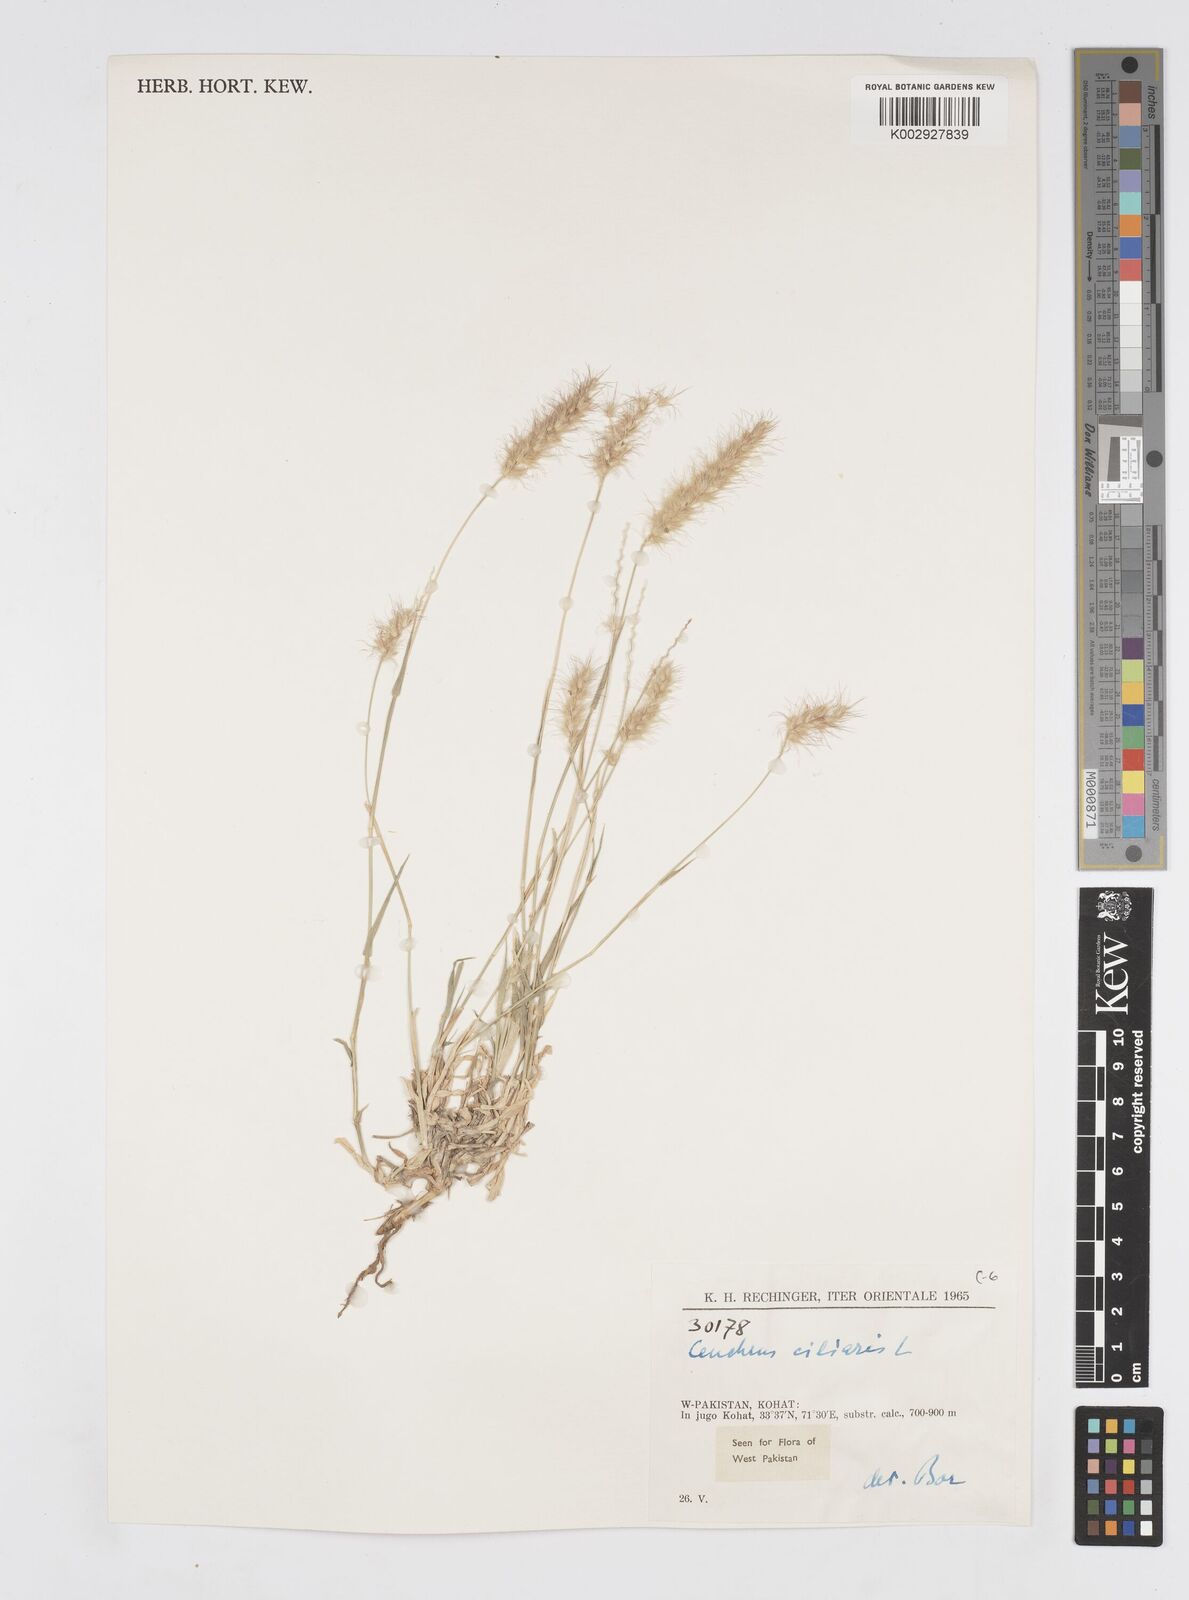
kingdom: Plantae
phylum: Tracheophyta
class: Liliopsida
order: Poales
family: Poaceae
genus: Cenchrus
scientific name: Cenchrus ciliaris
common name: Buffelgrass
